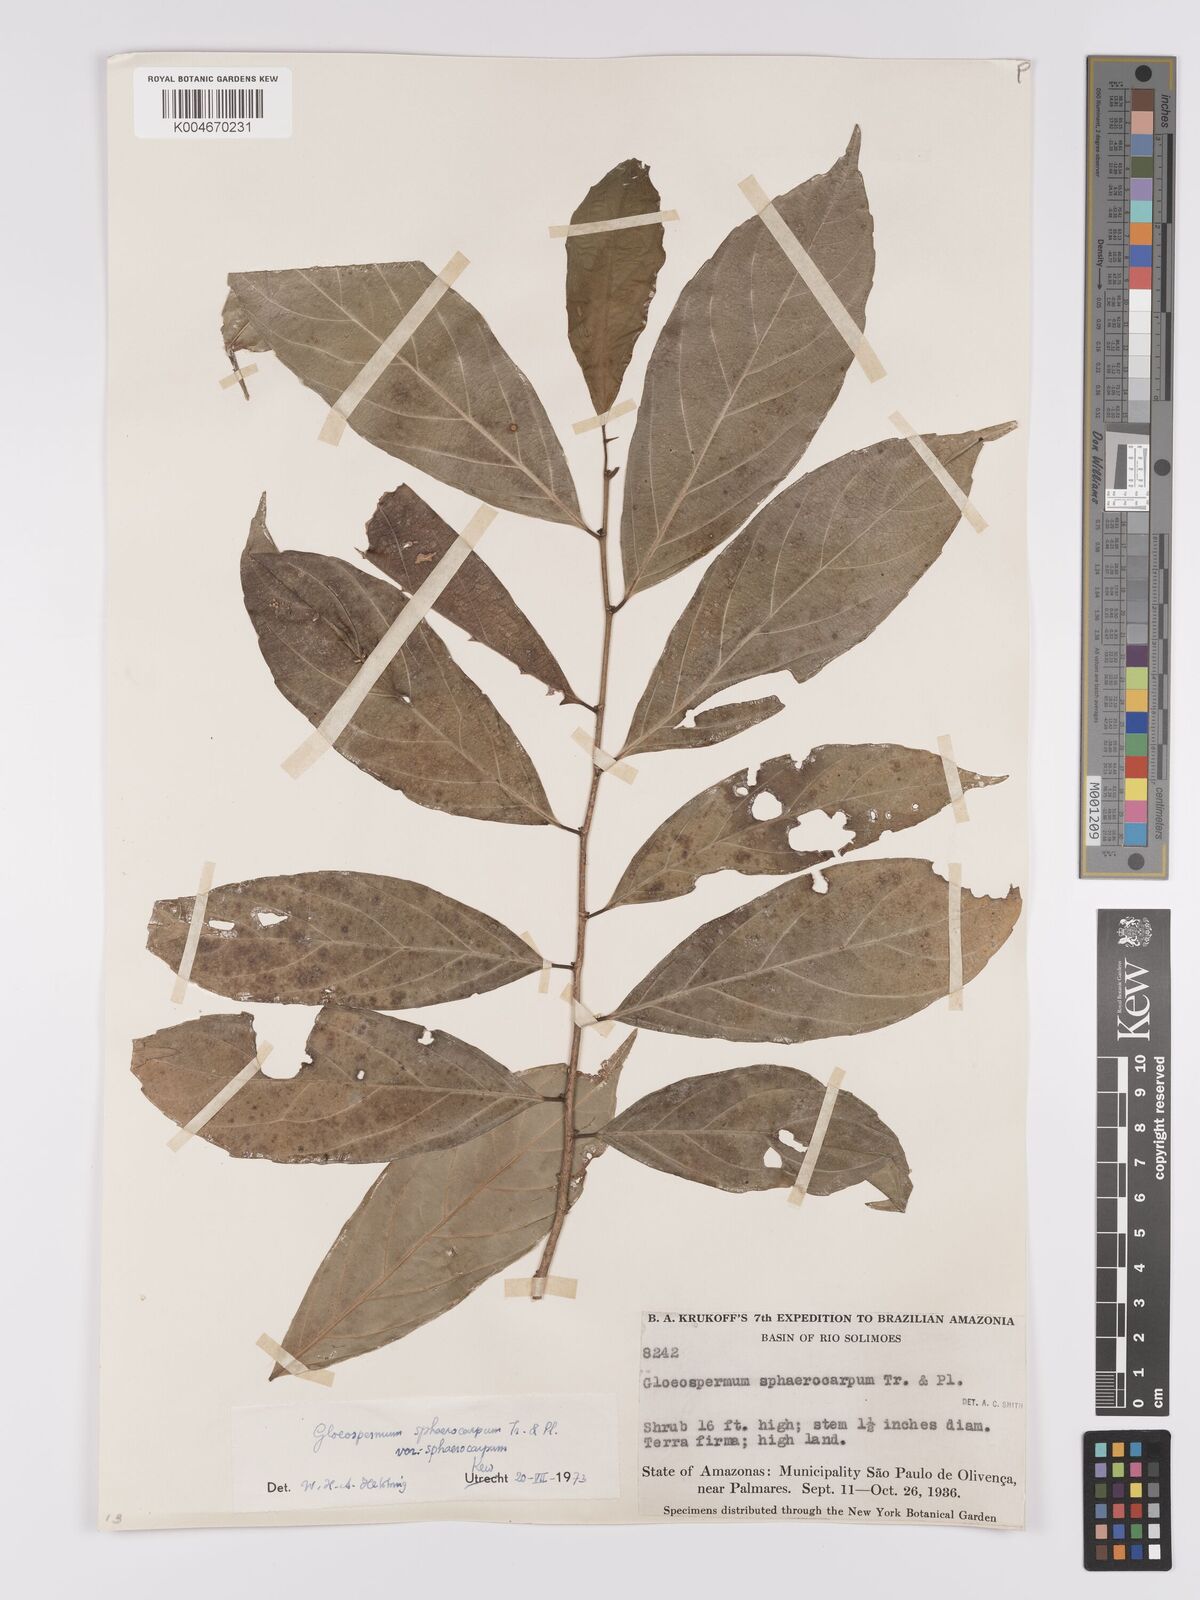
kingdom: Plantae
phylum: Tracheophyta
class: Magnoliopsida
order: Malpighiales
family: Violaceae
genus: Gloeospermum
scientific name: Gloeospermum sphaerocarpum
